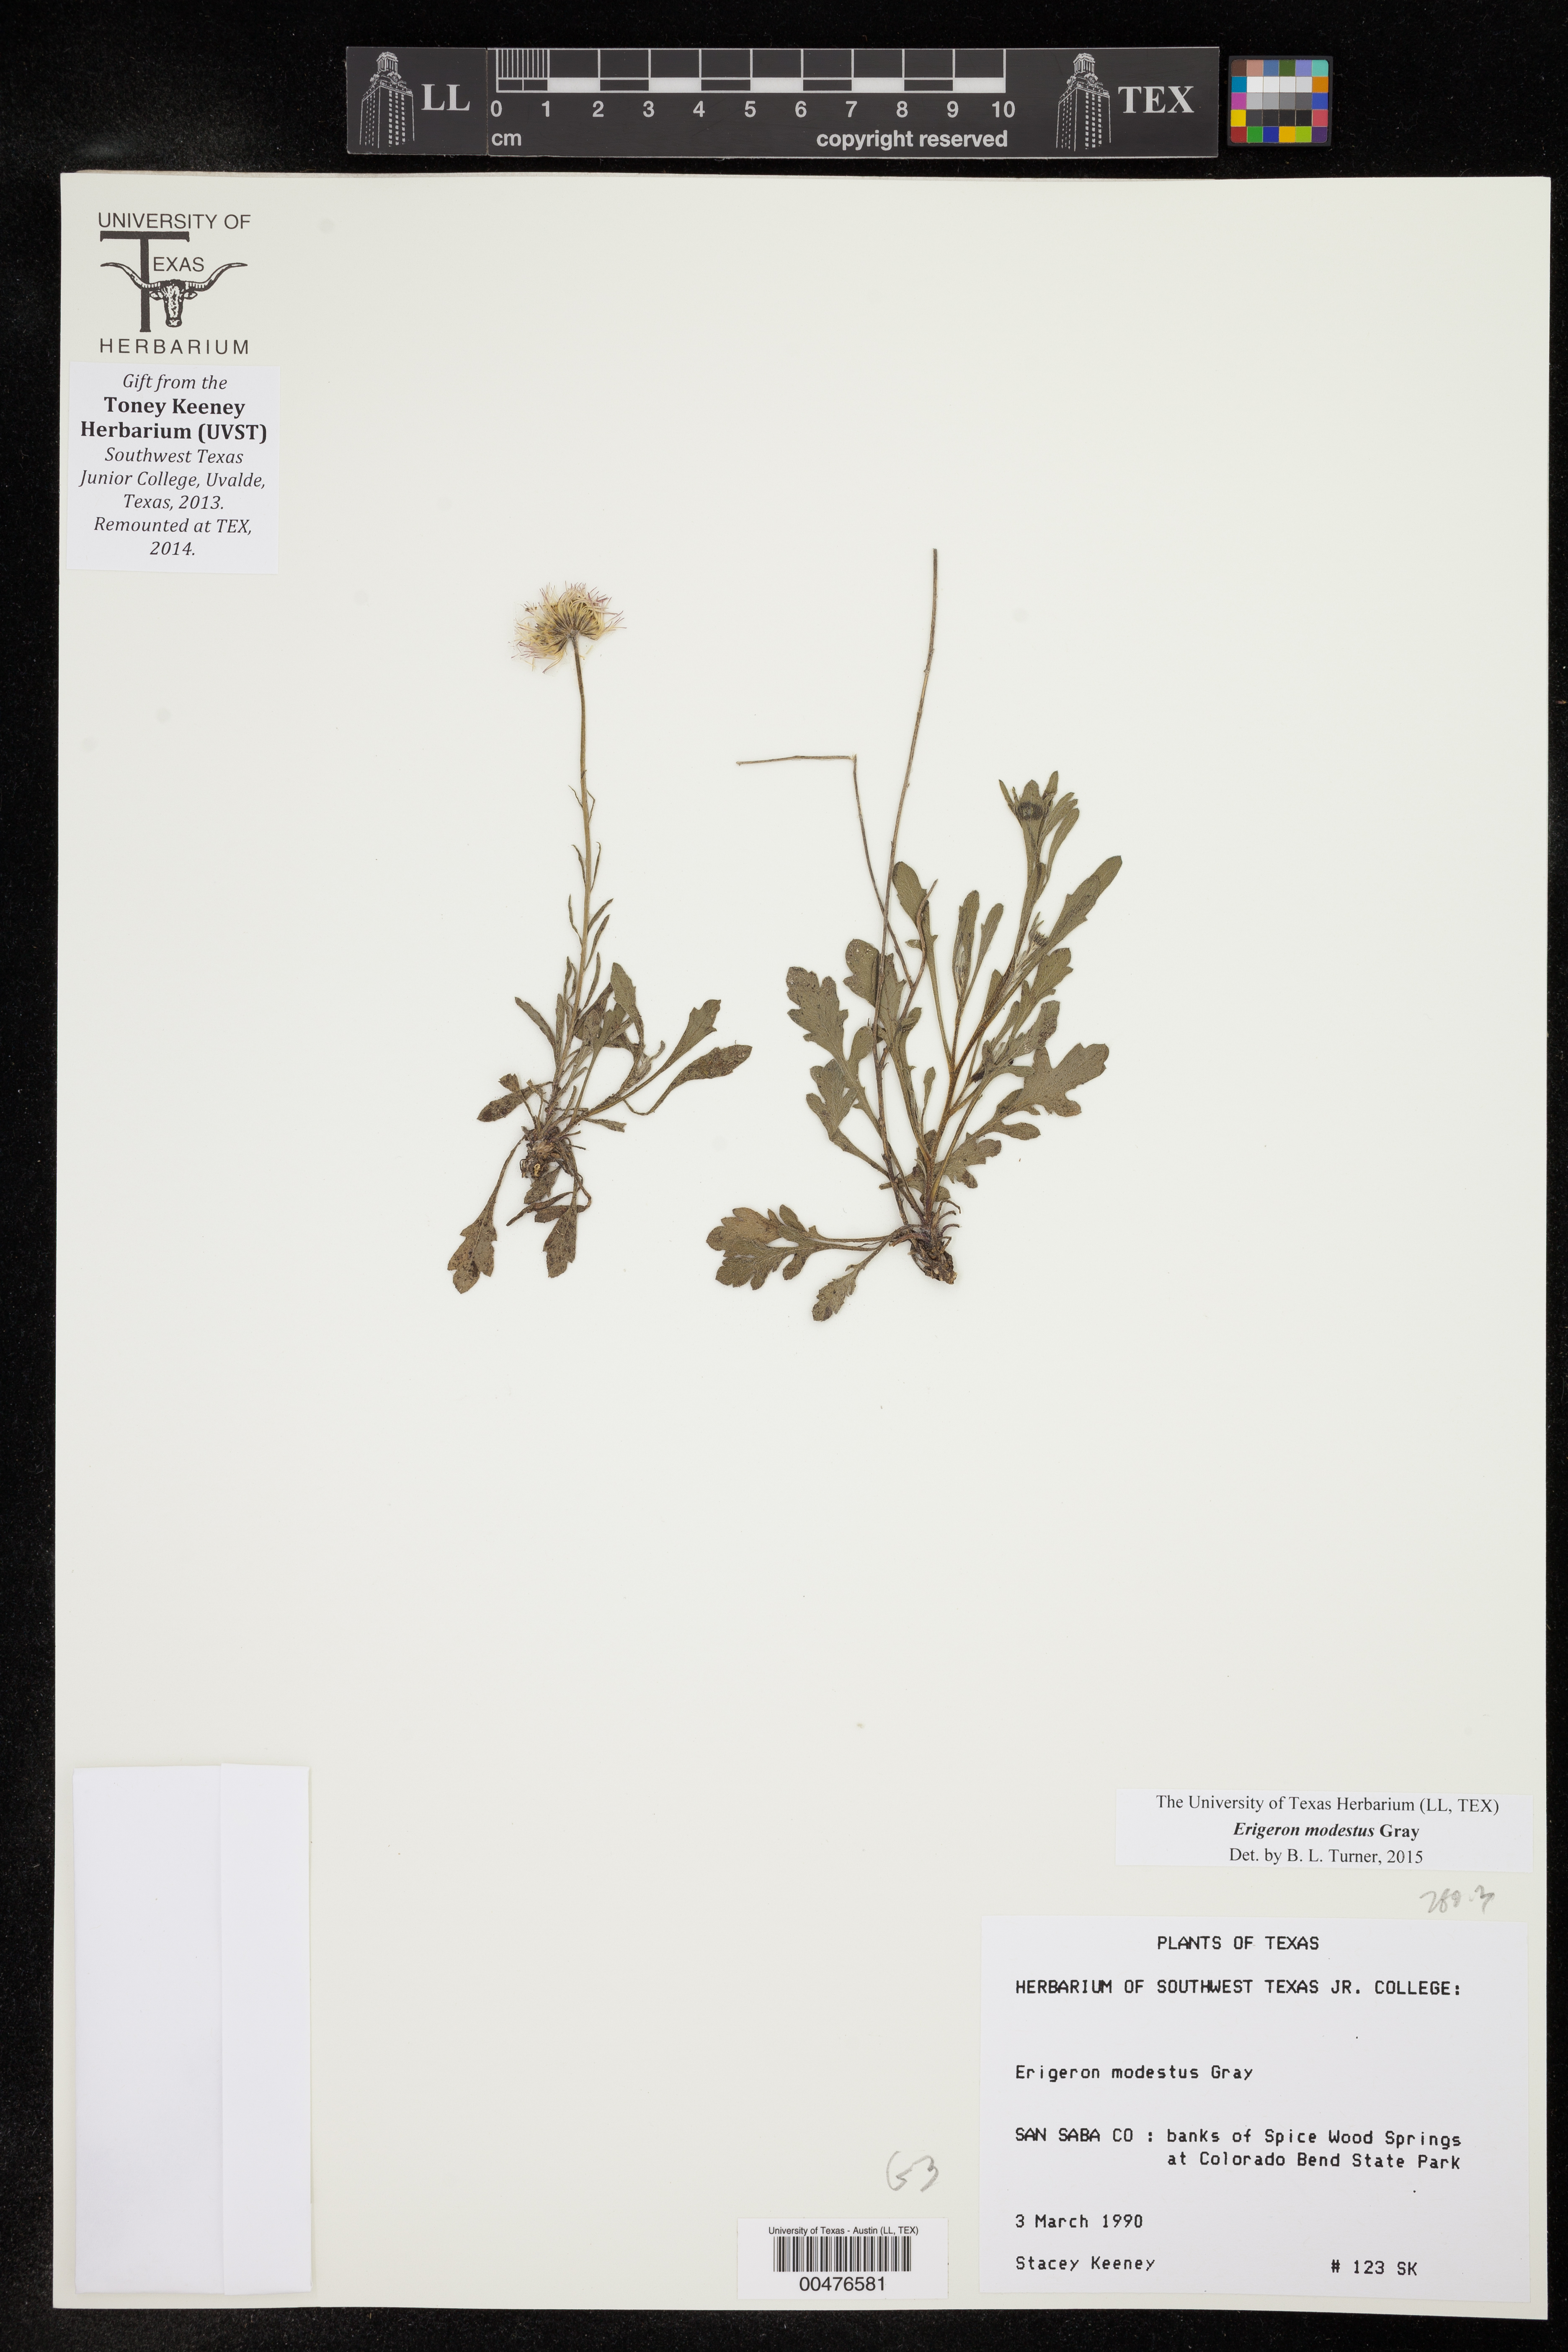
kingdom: Plantae
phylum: Tracheophyta
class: Magnoliopsida
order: Asterales
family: Asteraceae
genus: Erigeron
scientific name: Erigeron modestus
